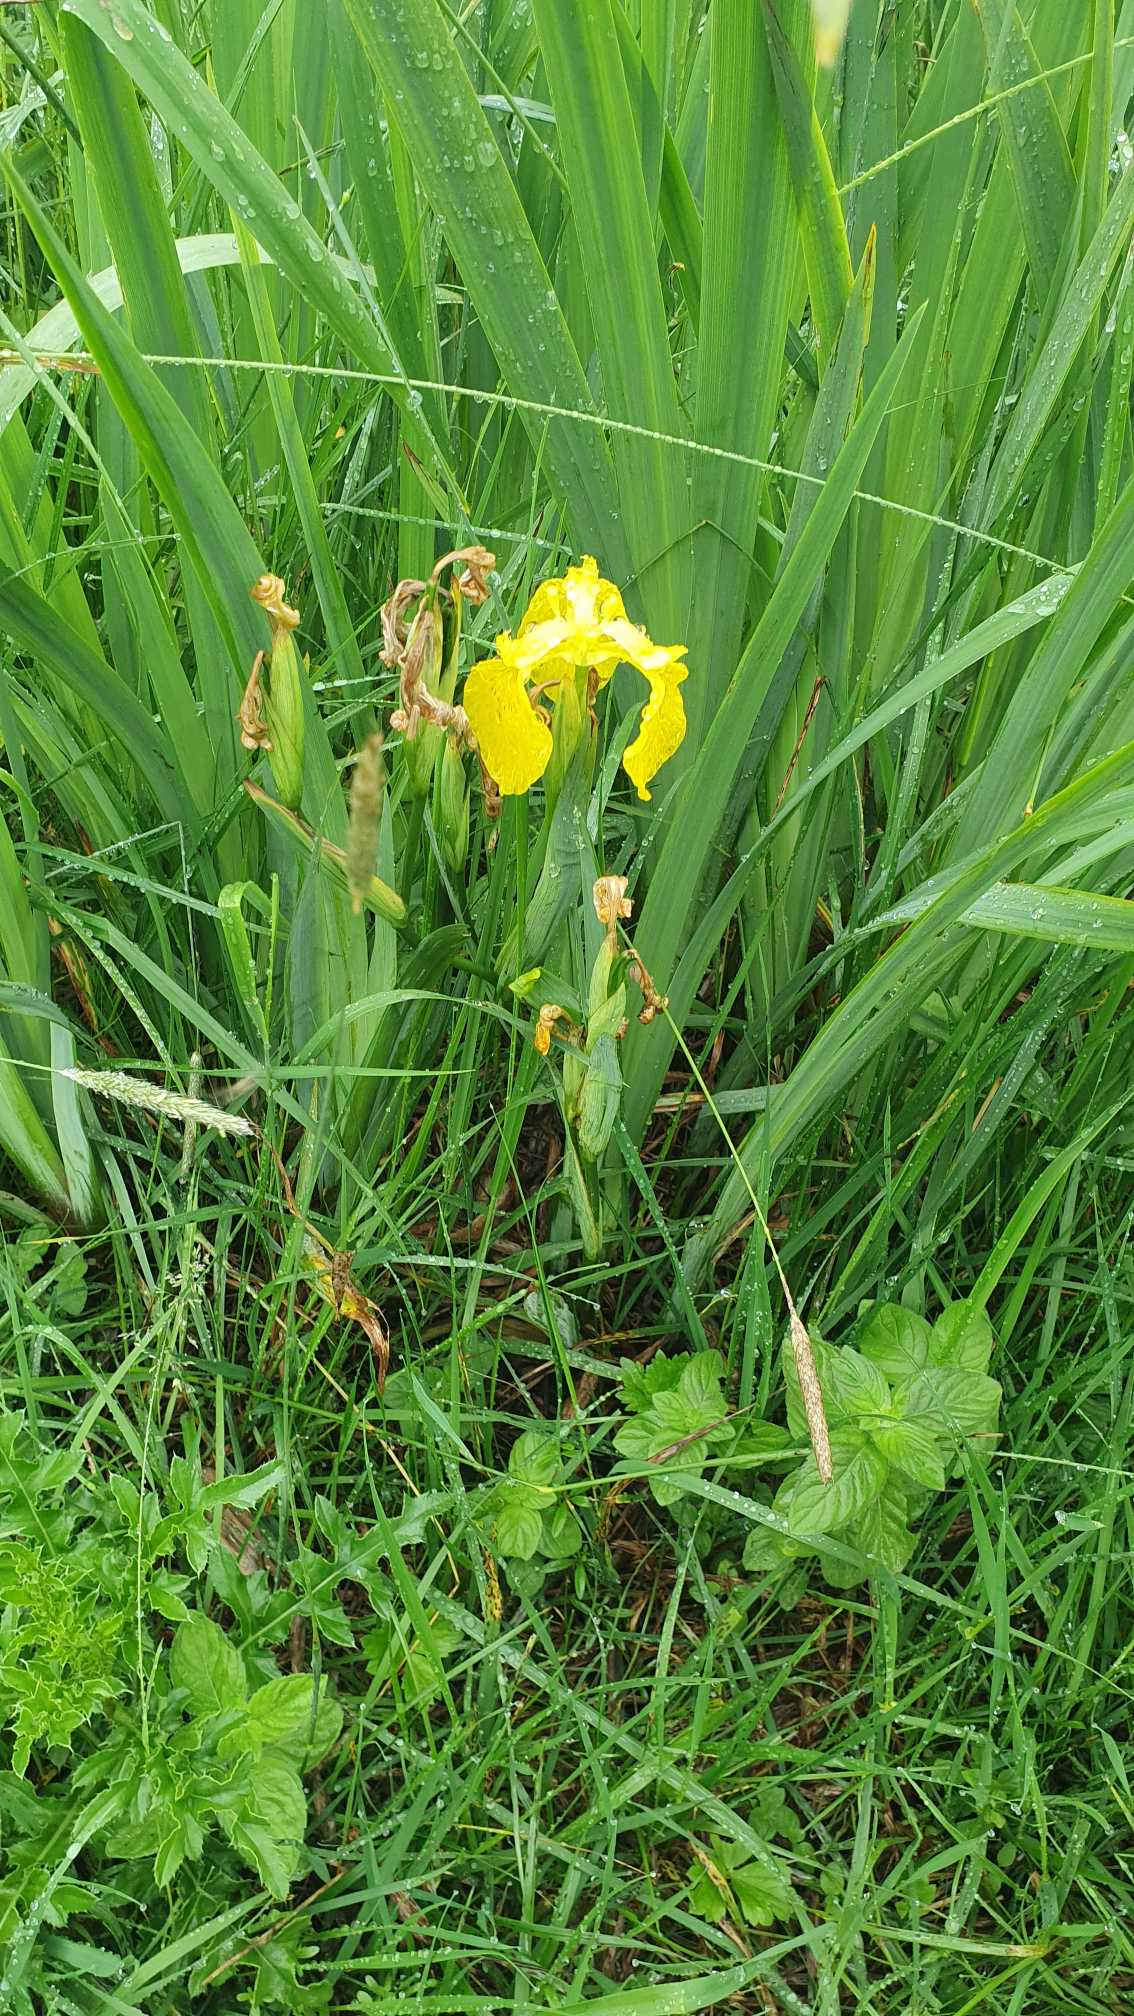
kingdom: Plantae
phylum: Tracheophyta
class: Liliopsida
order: Asparagales
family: Iridaceae
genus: Iris
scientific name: Iris pseudacorus
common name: Gul iris
